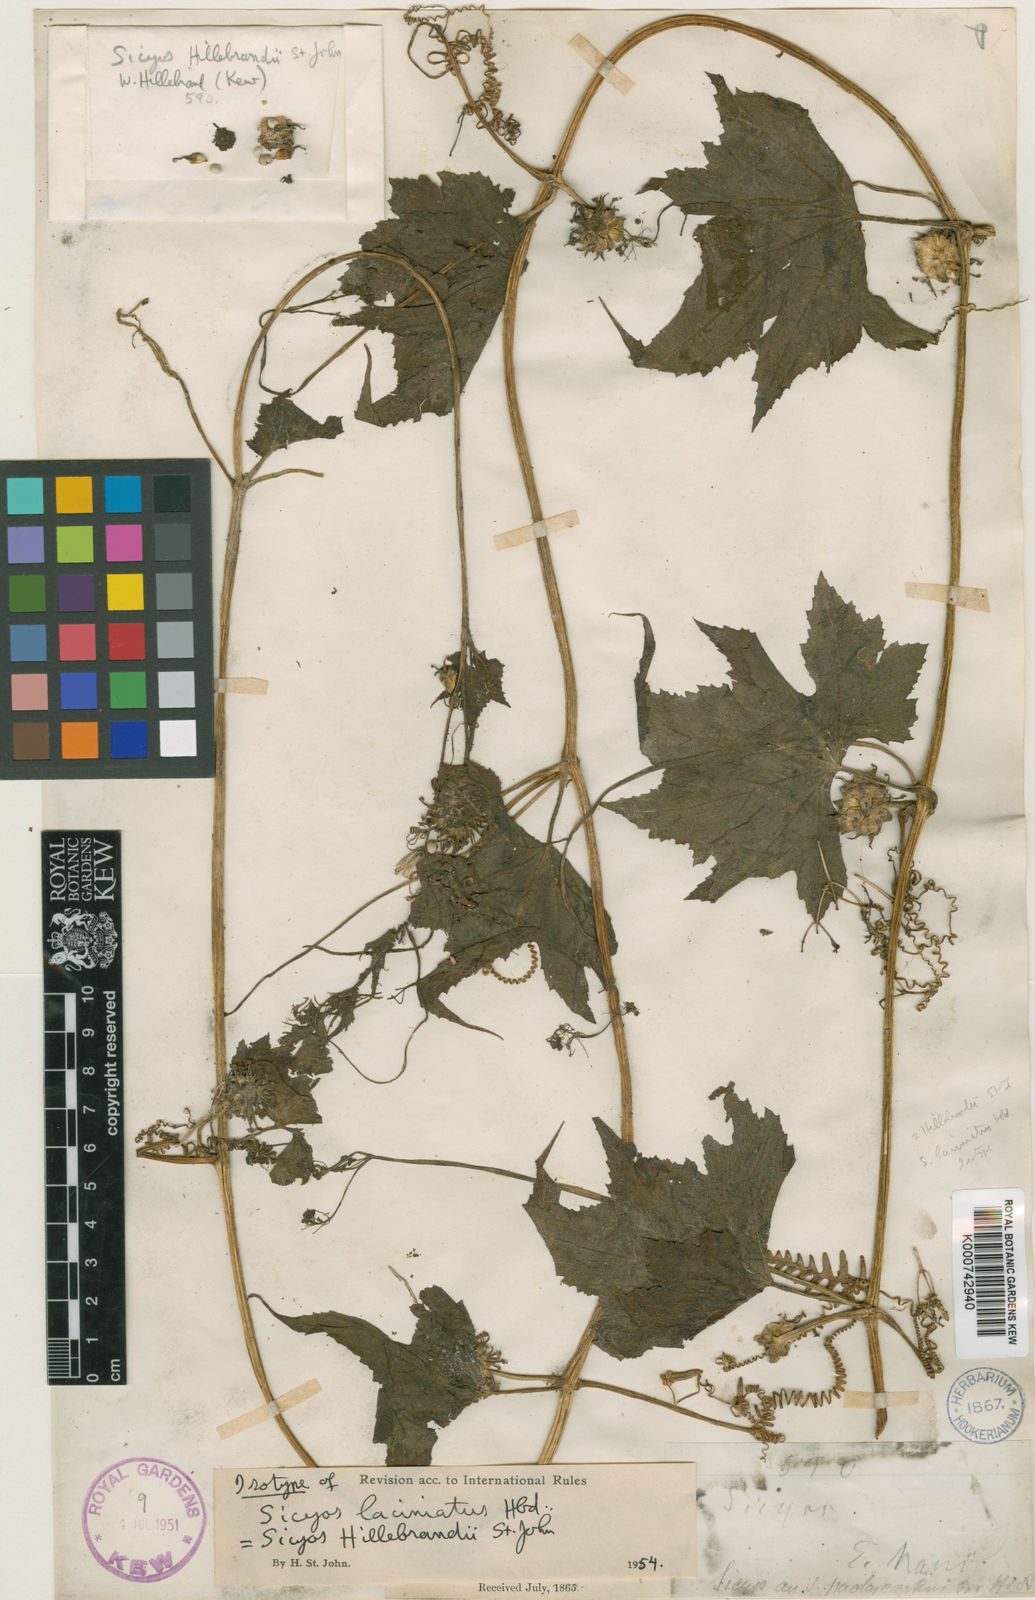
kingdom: Plantae
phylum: Tracheophyta
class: Magnoliopsida
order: Cucurbitales
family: Cucurbitaceae
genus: Sicyos
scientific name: Sicyos hillebrandii
